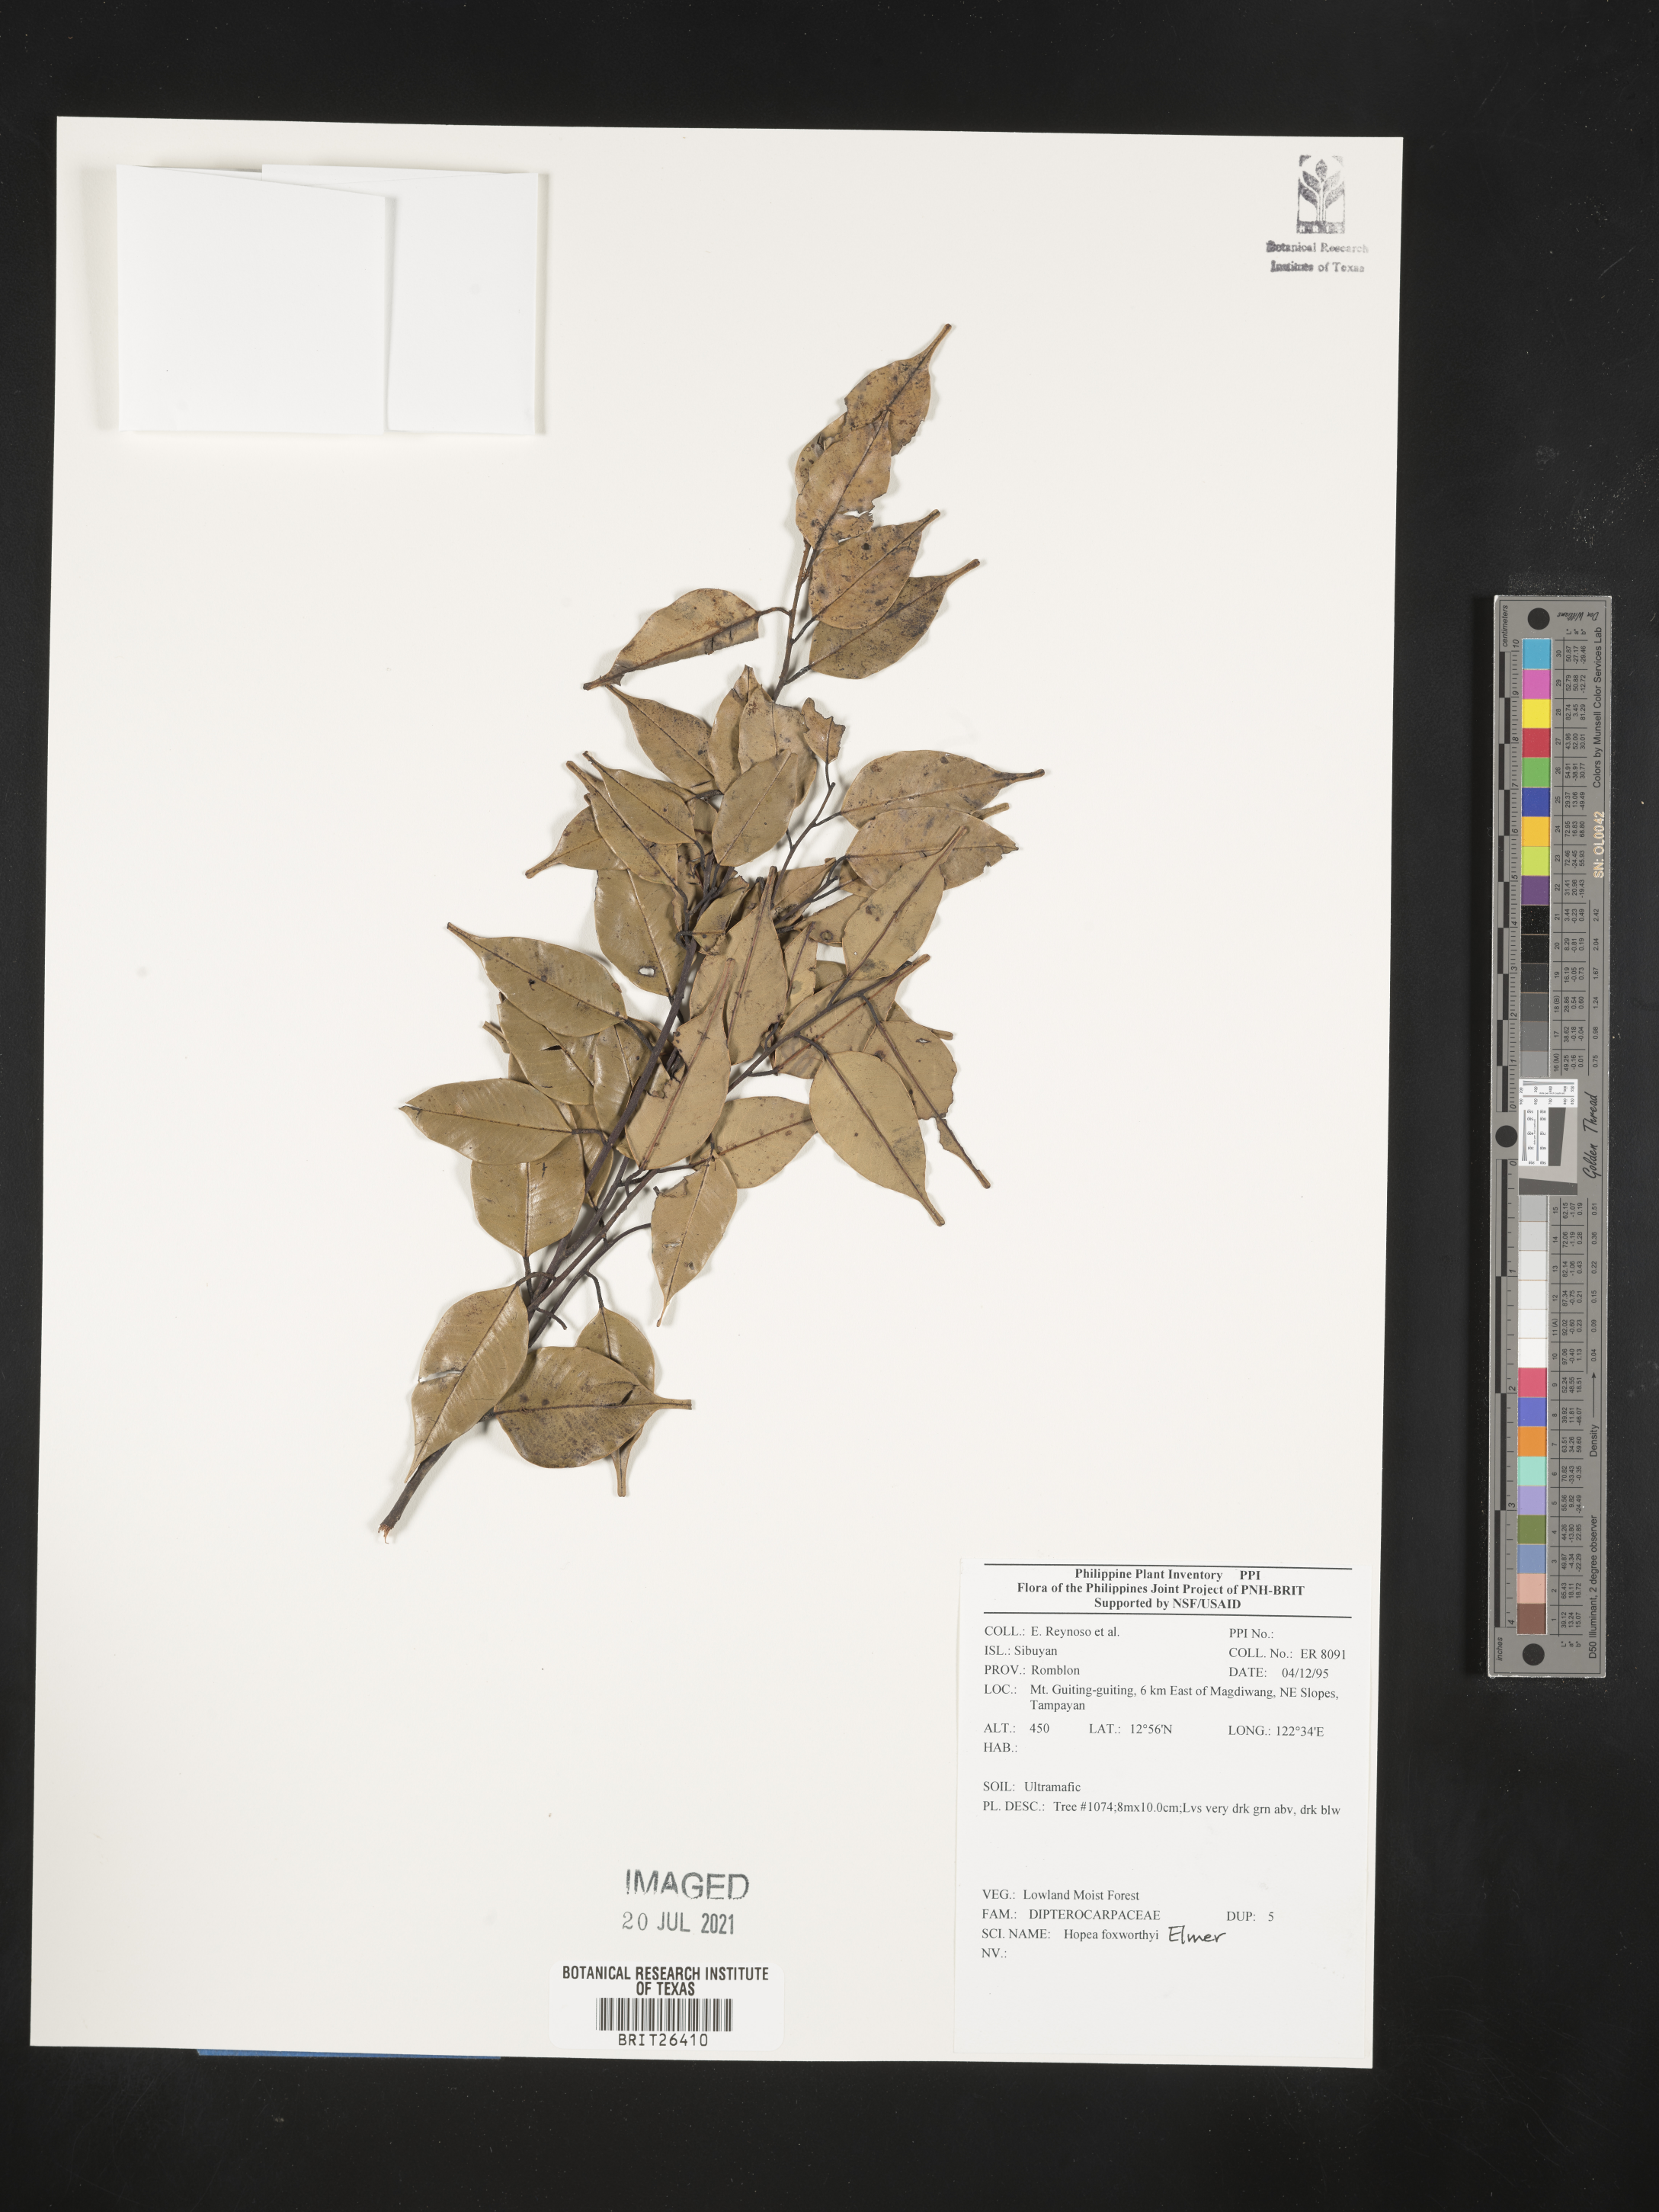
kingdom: Plantae
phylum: Tracheophyta
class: Magnoliopsida
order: Malvales
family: Dipterocarpaceae
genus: Hopea
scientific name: Hopea foxworthyi
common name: Dalingdingan
